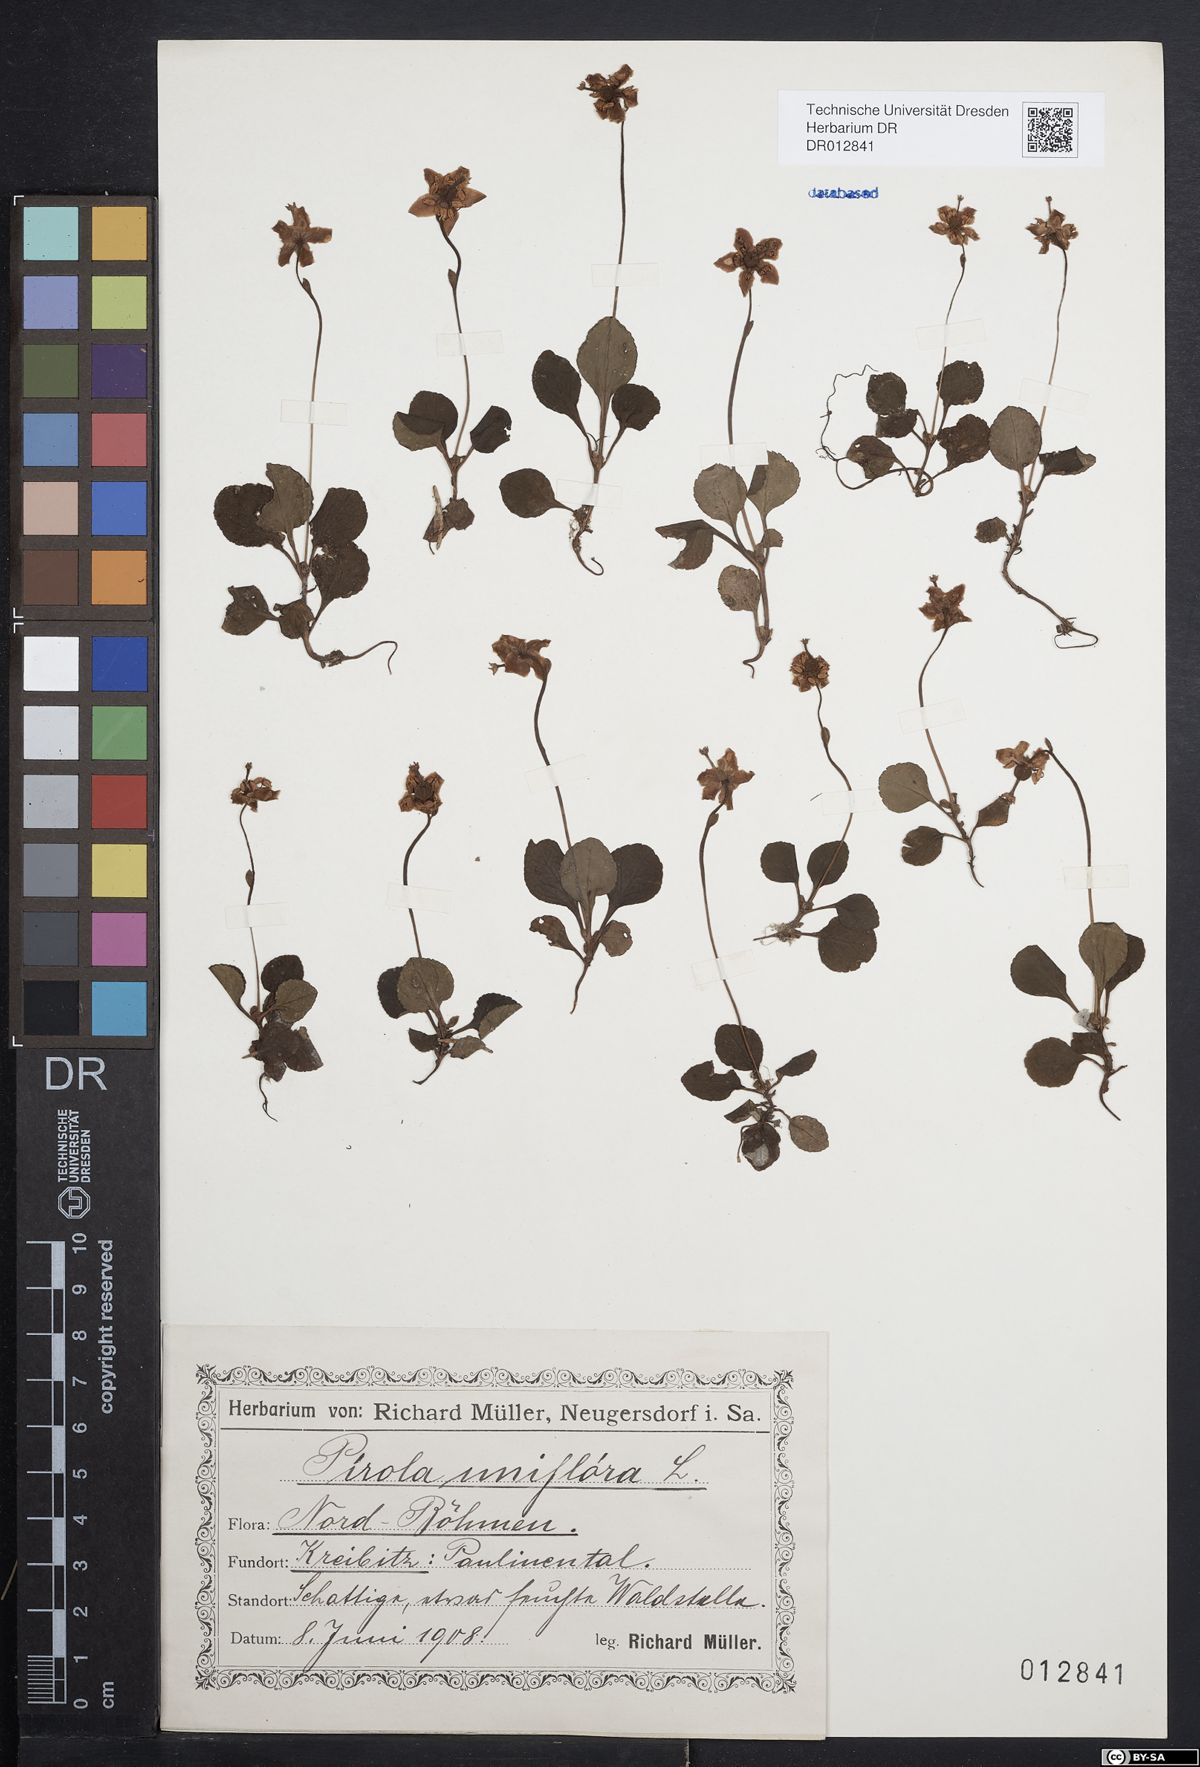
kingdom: Plantae
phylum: Tracheophyta
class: Magnoliopsida
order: Ericales
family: Ericaceae
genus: Moneses
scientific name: Moneses uniflora
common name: One-flowered wintergreen
